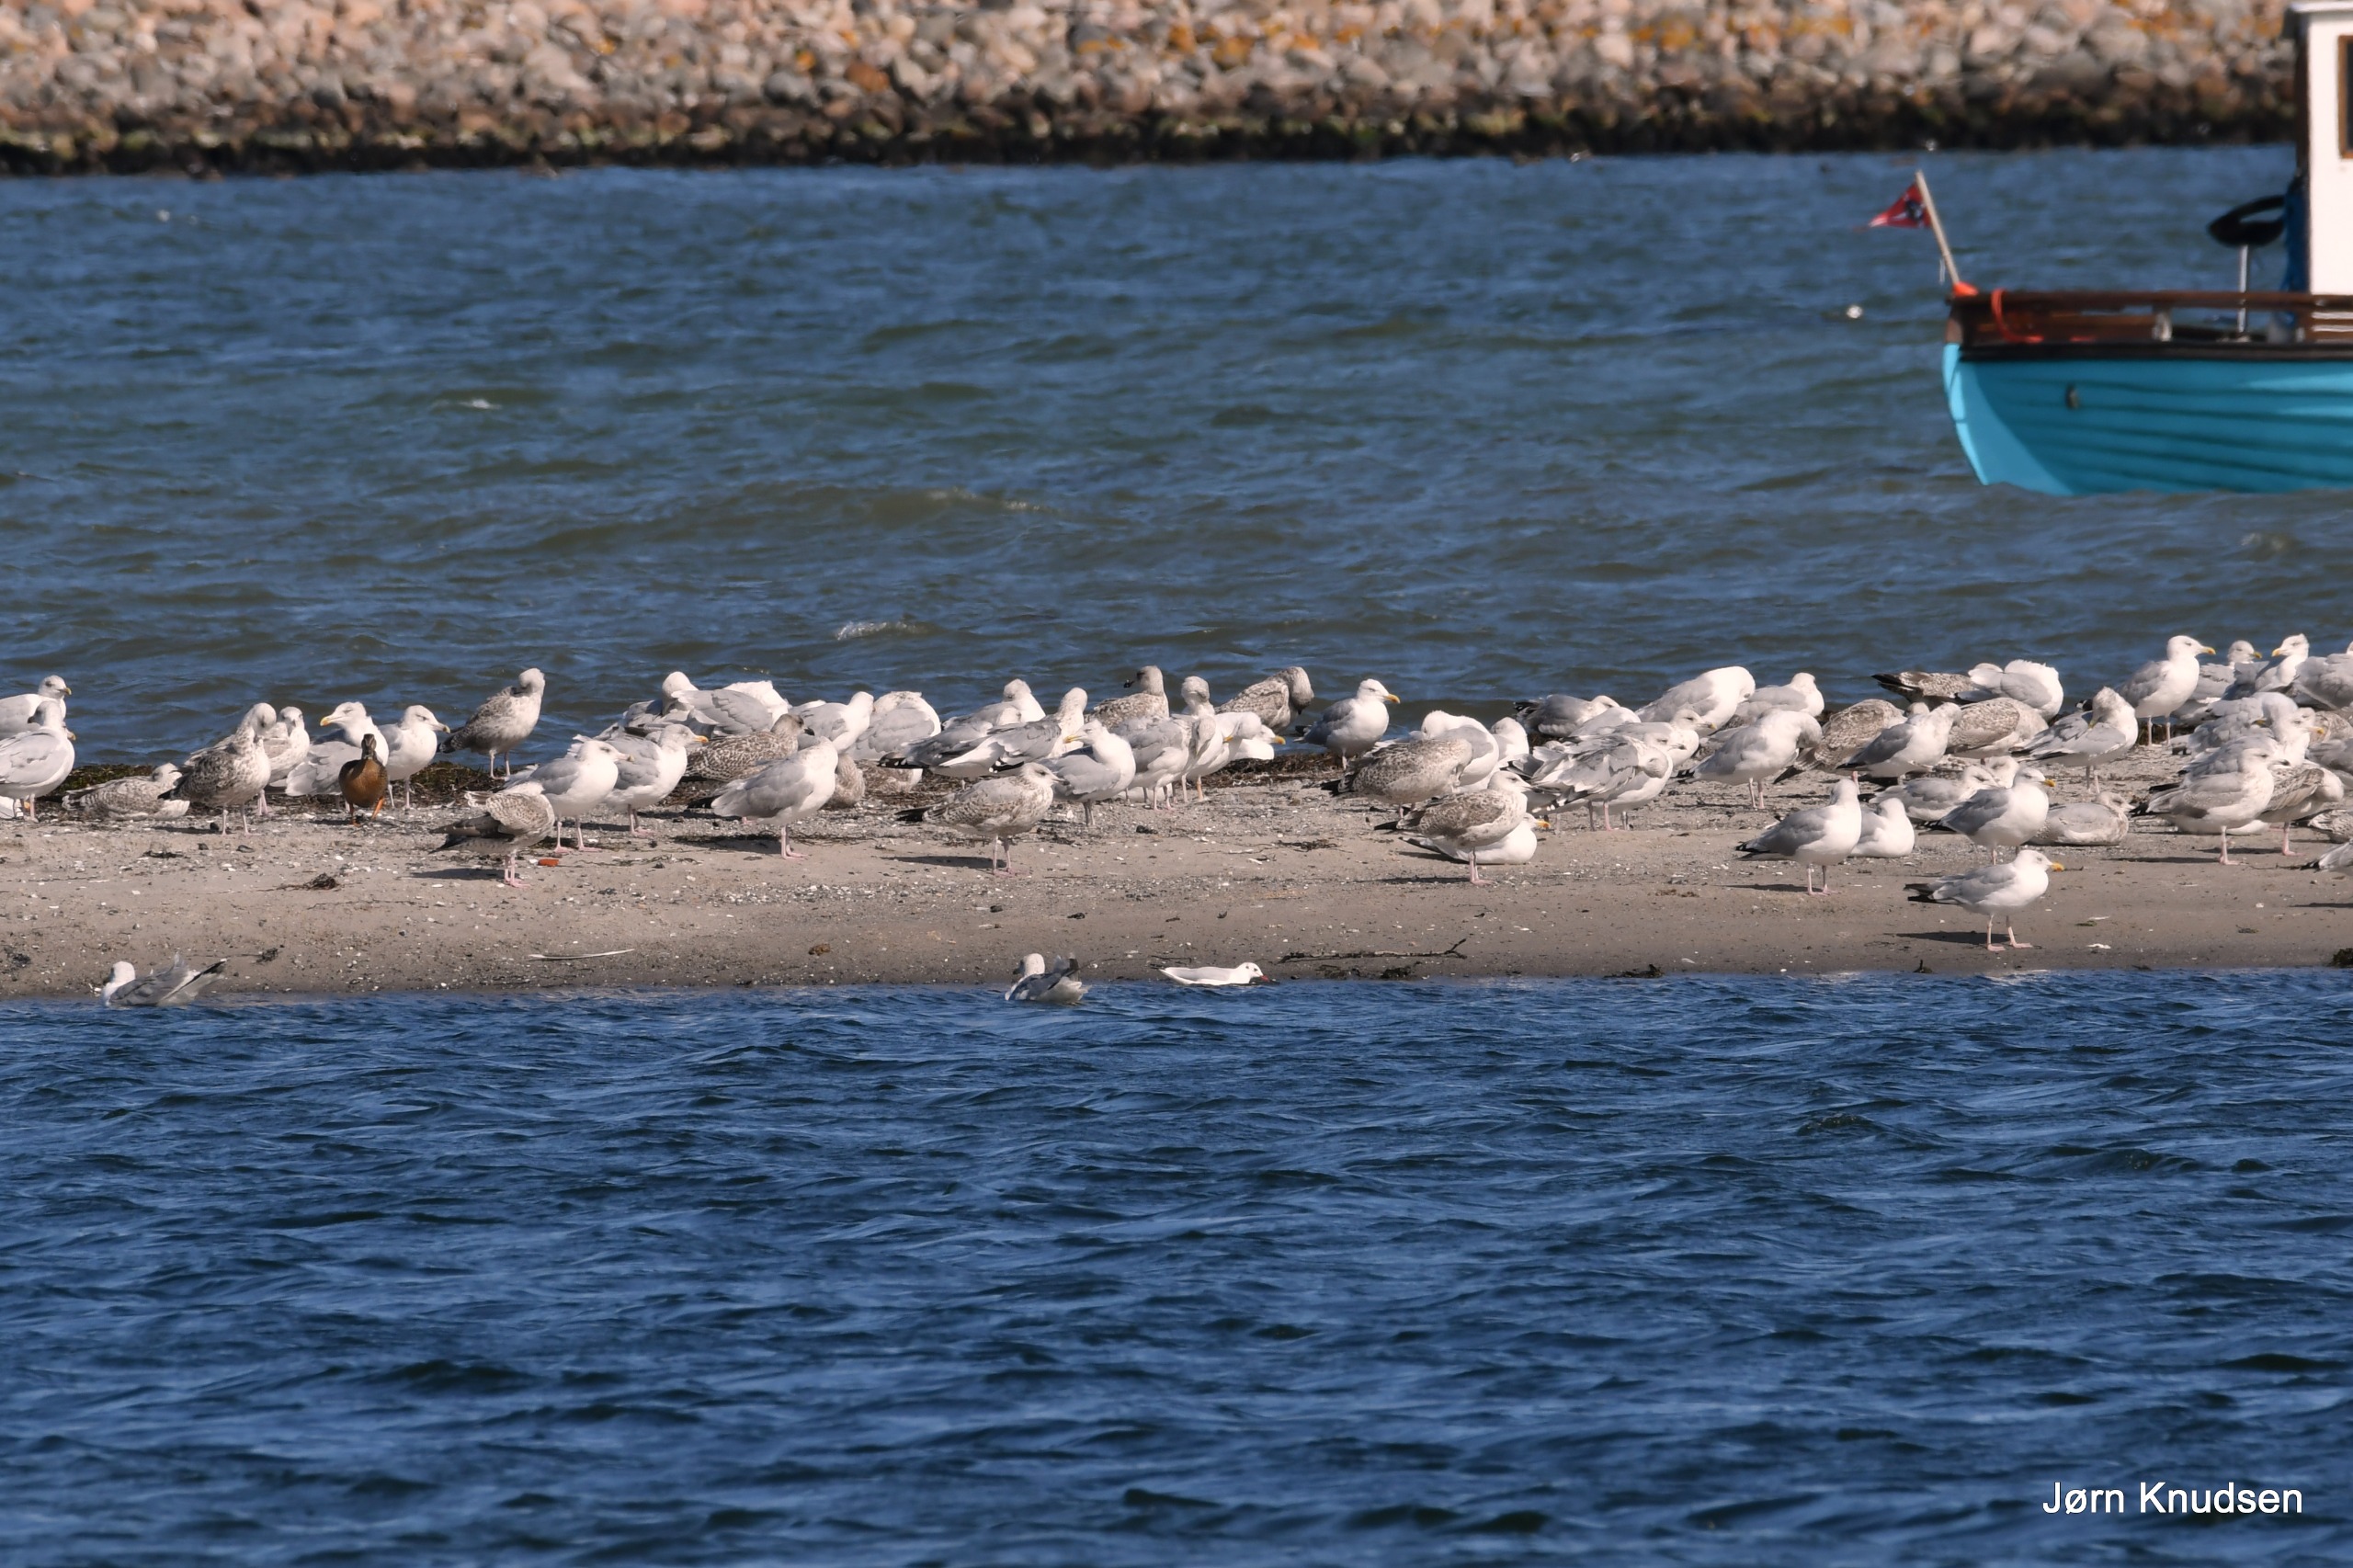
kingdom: Animalia
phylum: Chordata
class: Aves
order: Charadriiformes
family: Laridae
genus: Larus
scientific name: Larus argentatus
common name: Sølvmåge
